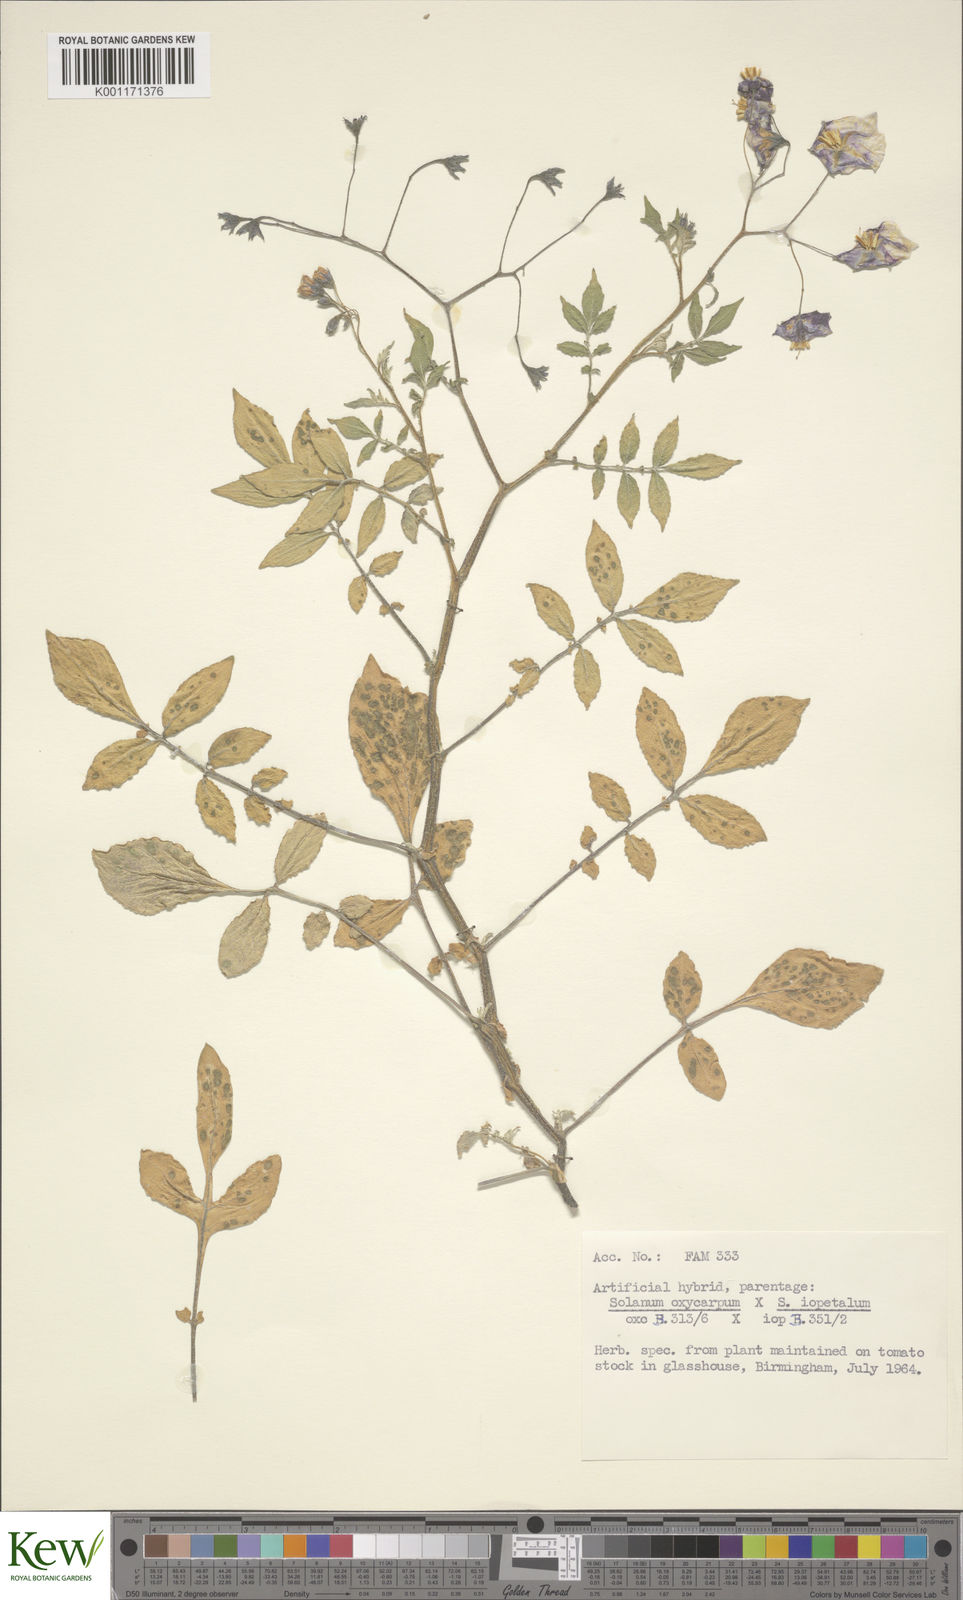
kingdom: Plantae
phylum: Tracheophyta
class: Magnoliopsida
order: Solanales
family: Solanaceae
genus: Solanum
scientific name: Solanum oxycarpum
